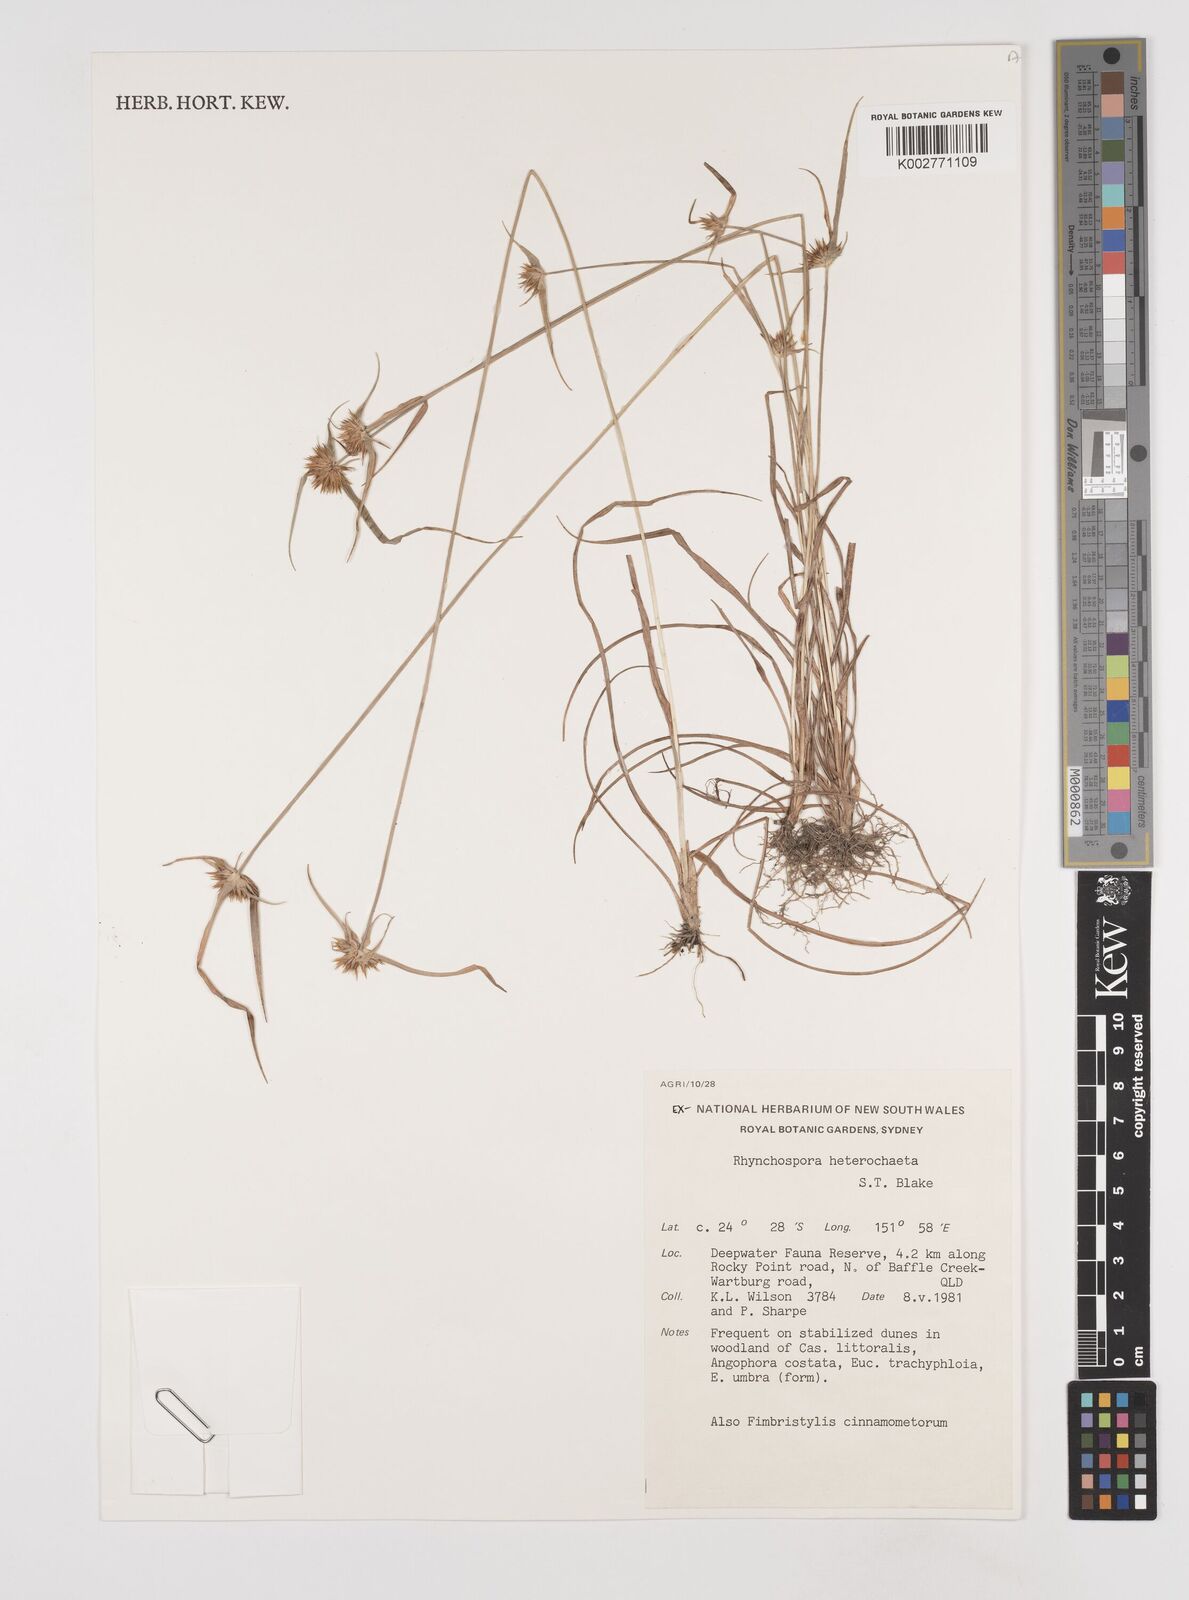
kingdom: Plantae
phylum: Tracheophyta
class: Liliopsida
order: Poales
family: Cyperaceae
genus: Rhynchospora
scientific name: Rhynchospora heterochaeta
